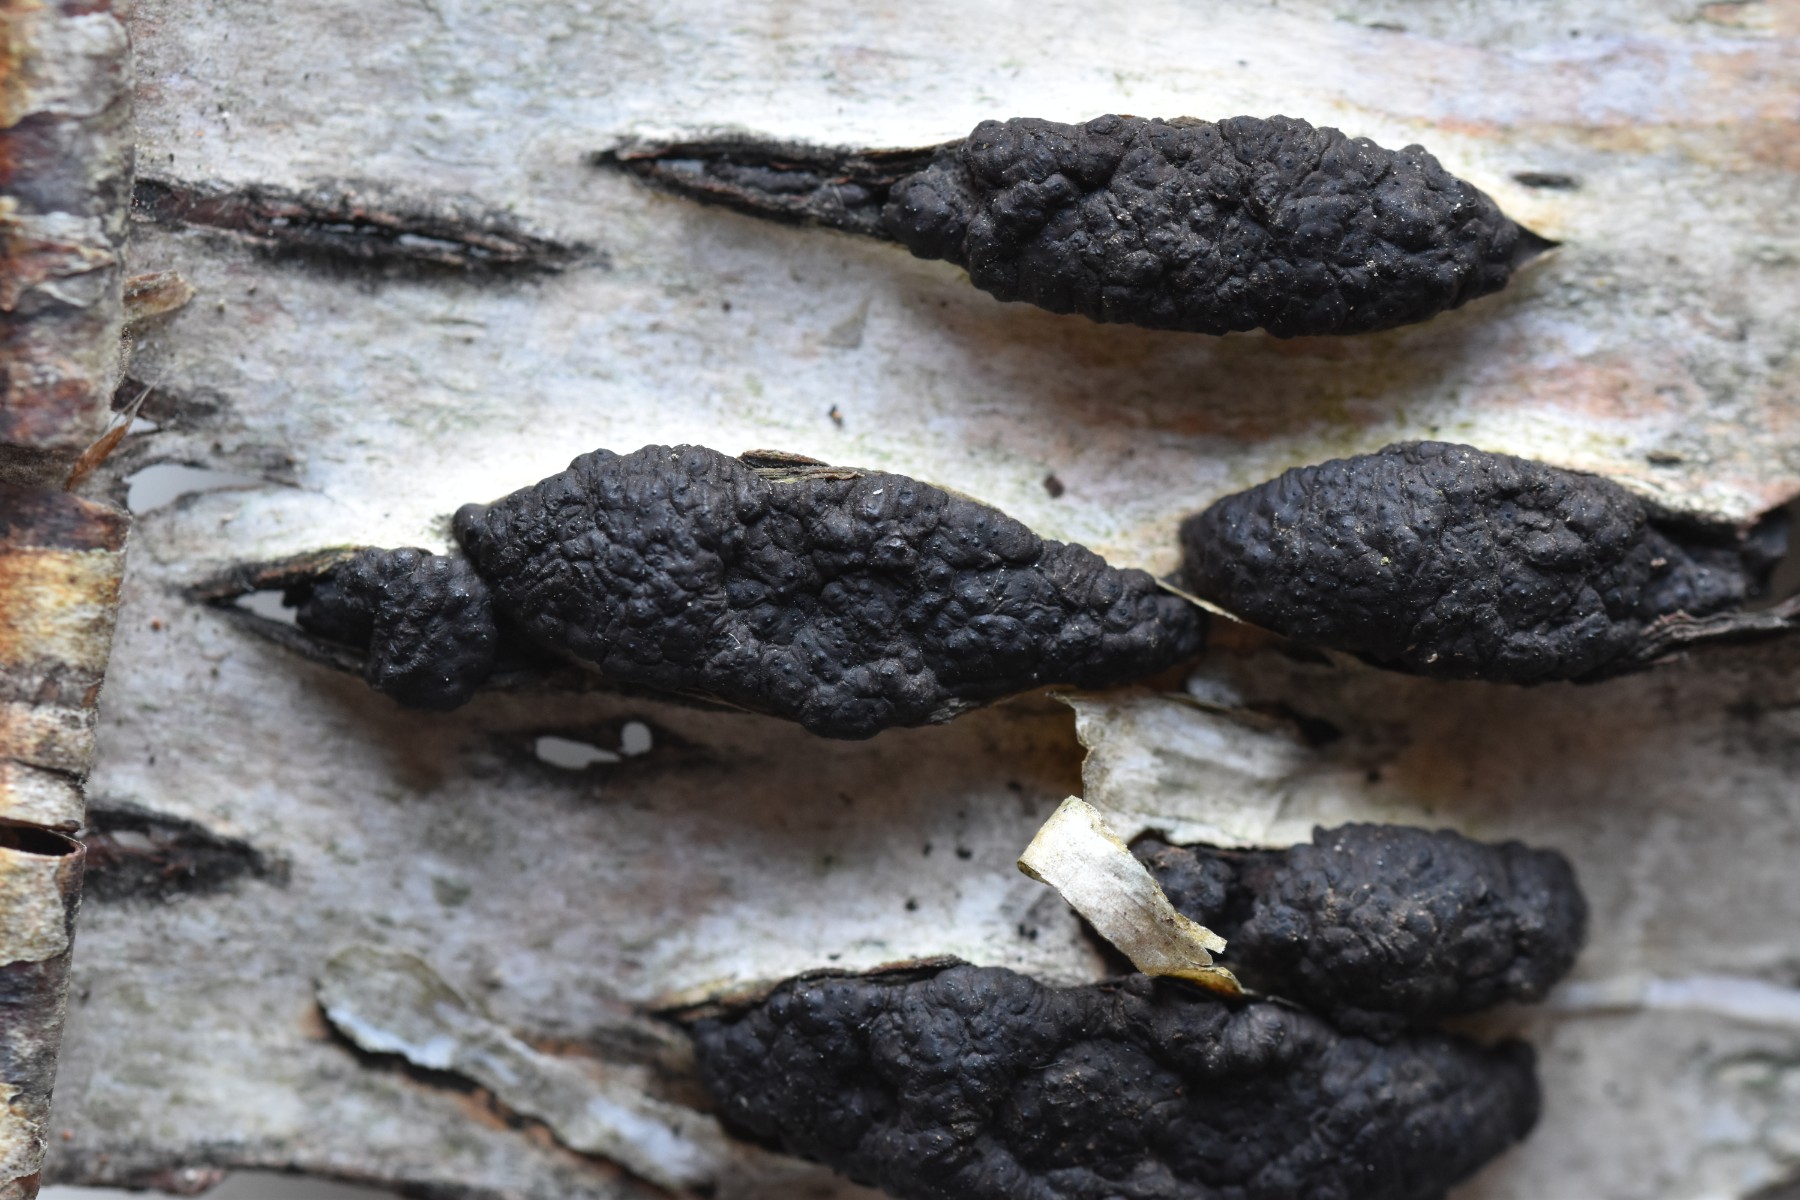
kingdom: Fungi
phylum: Ascomycota
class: Sordariomycetes
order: Xylariales
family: Hypoxylaceae
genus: Jackrogersella
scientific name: Jackrogersella multiformis
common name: foranderlig kulbær
